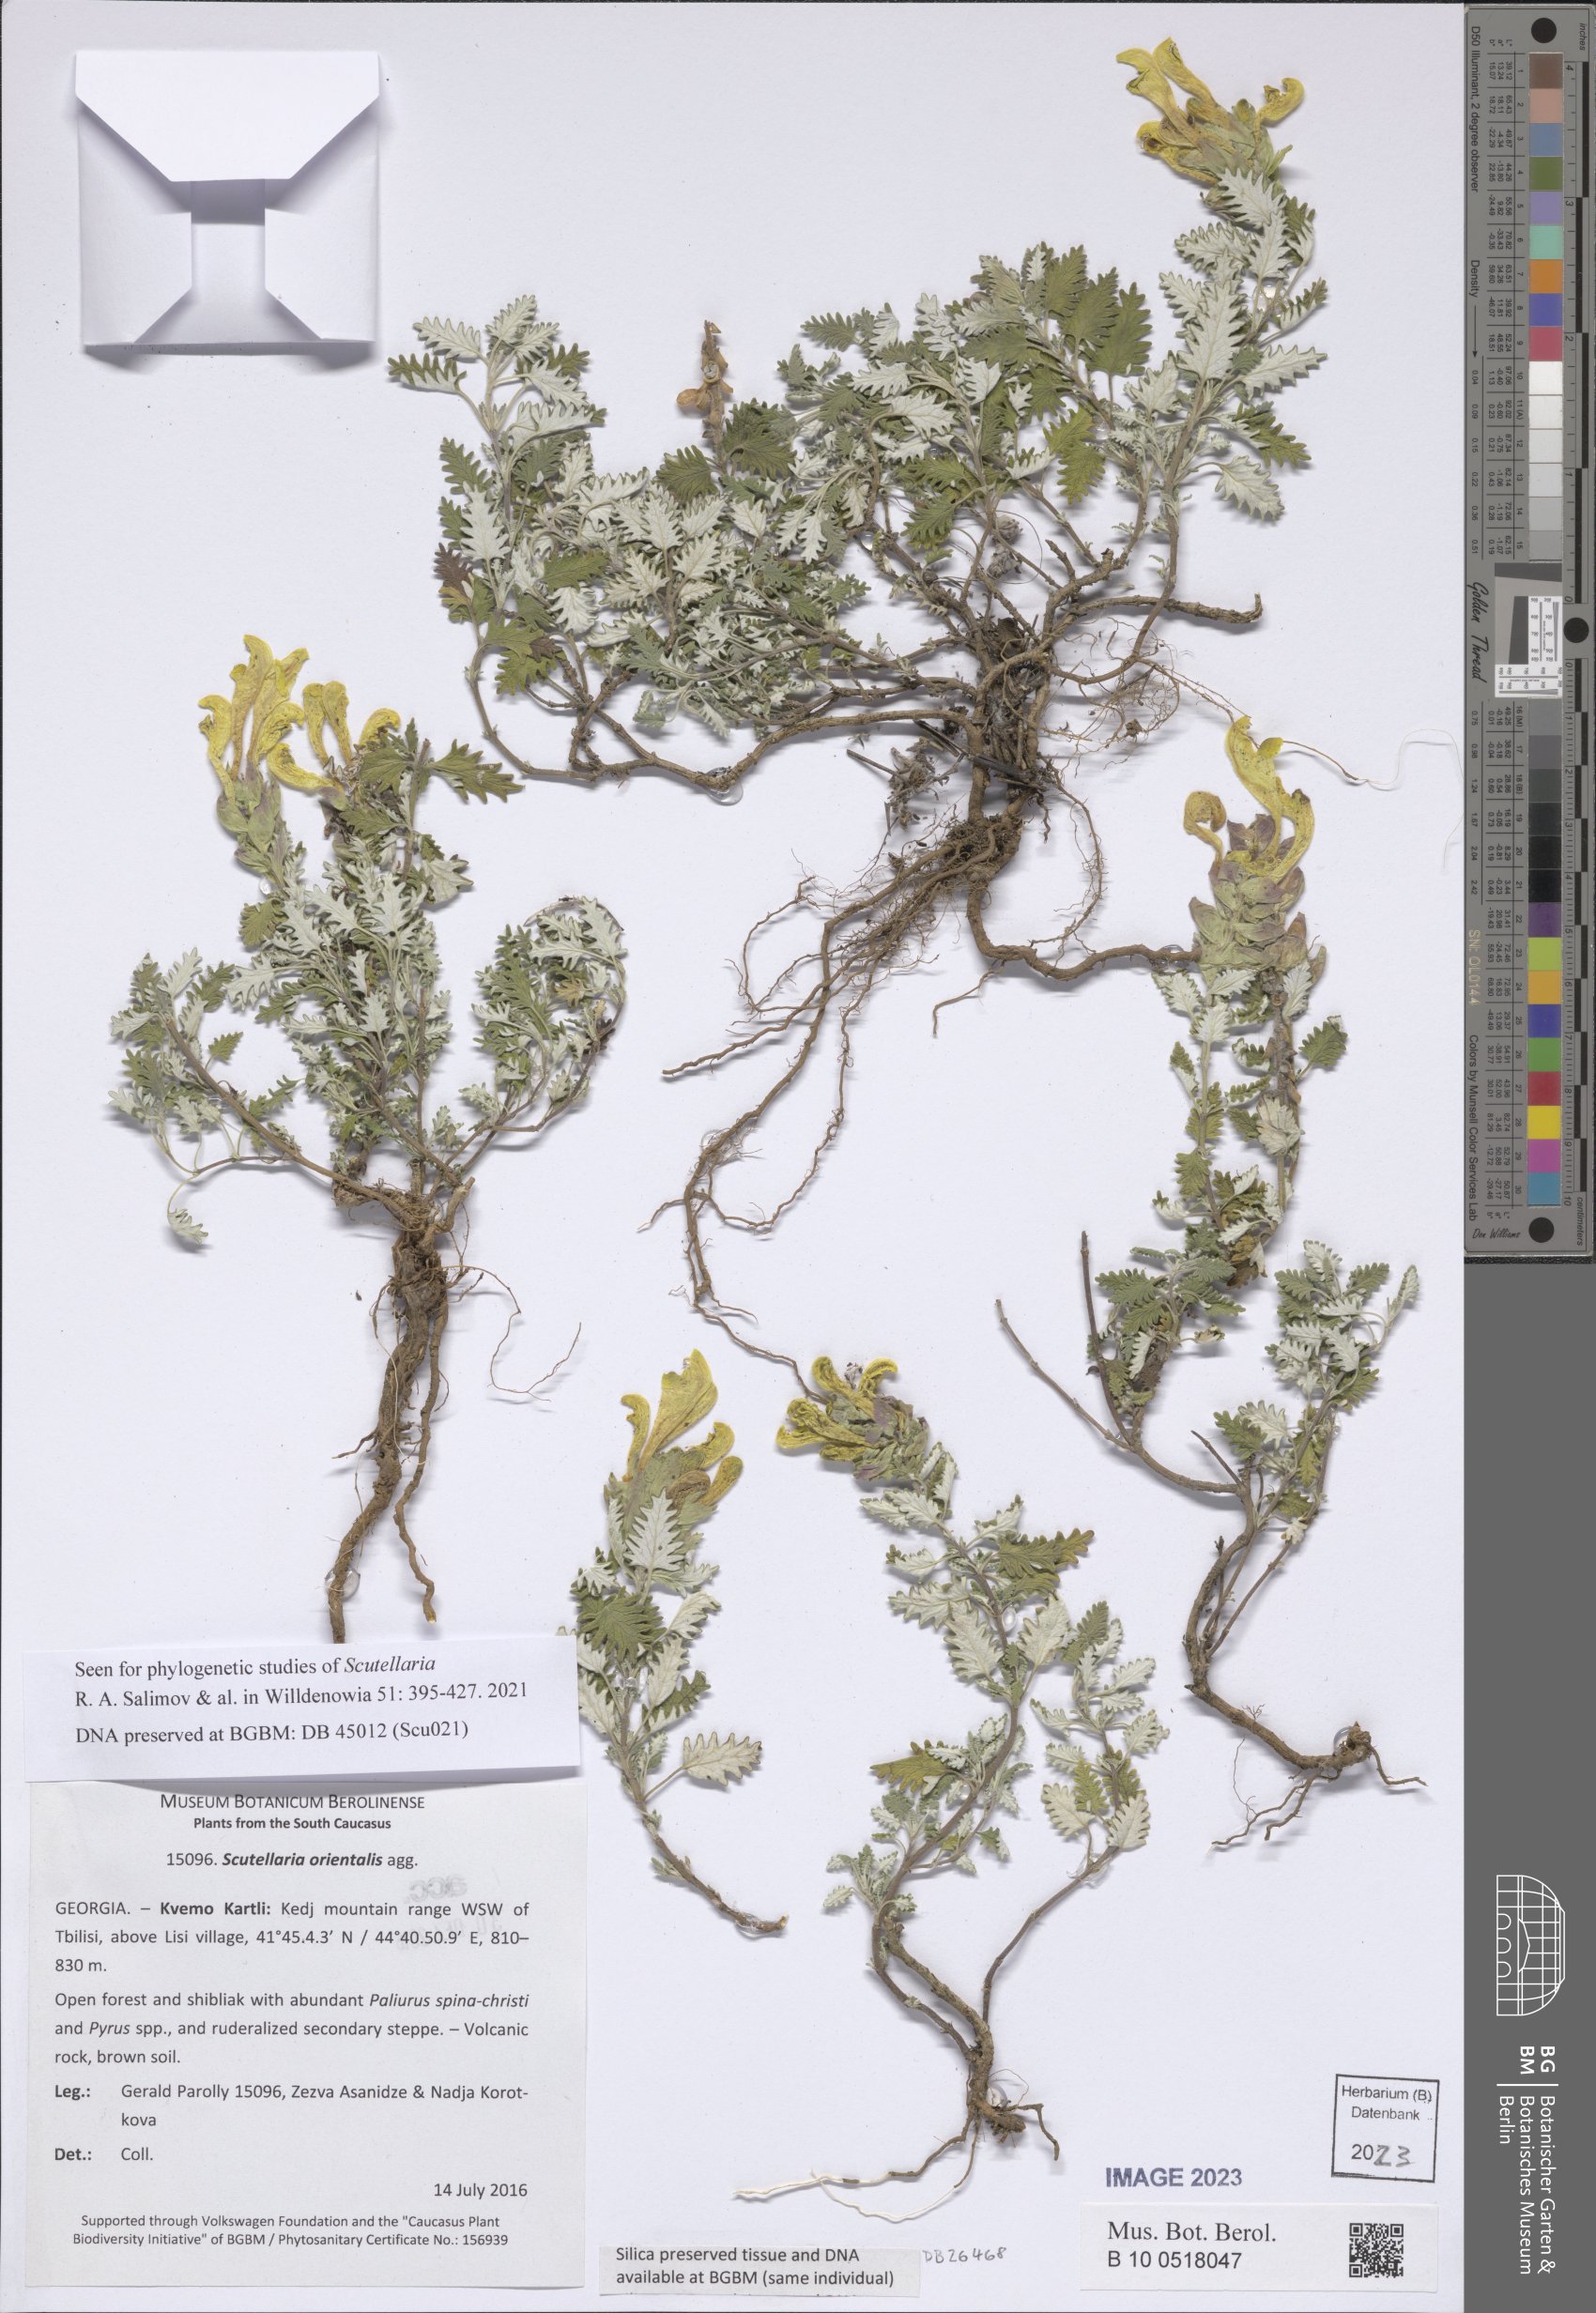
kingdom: Plantae
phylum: Tracheophyta
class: Magnoliopsida
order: Lamiales
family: Lamiaceae
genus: Scutellaria
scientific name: Scutellaria orientalis
